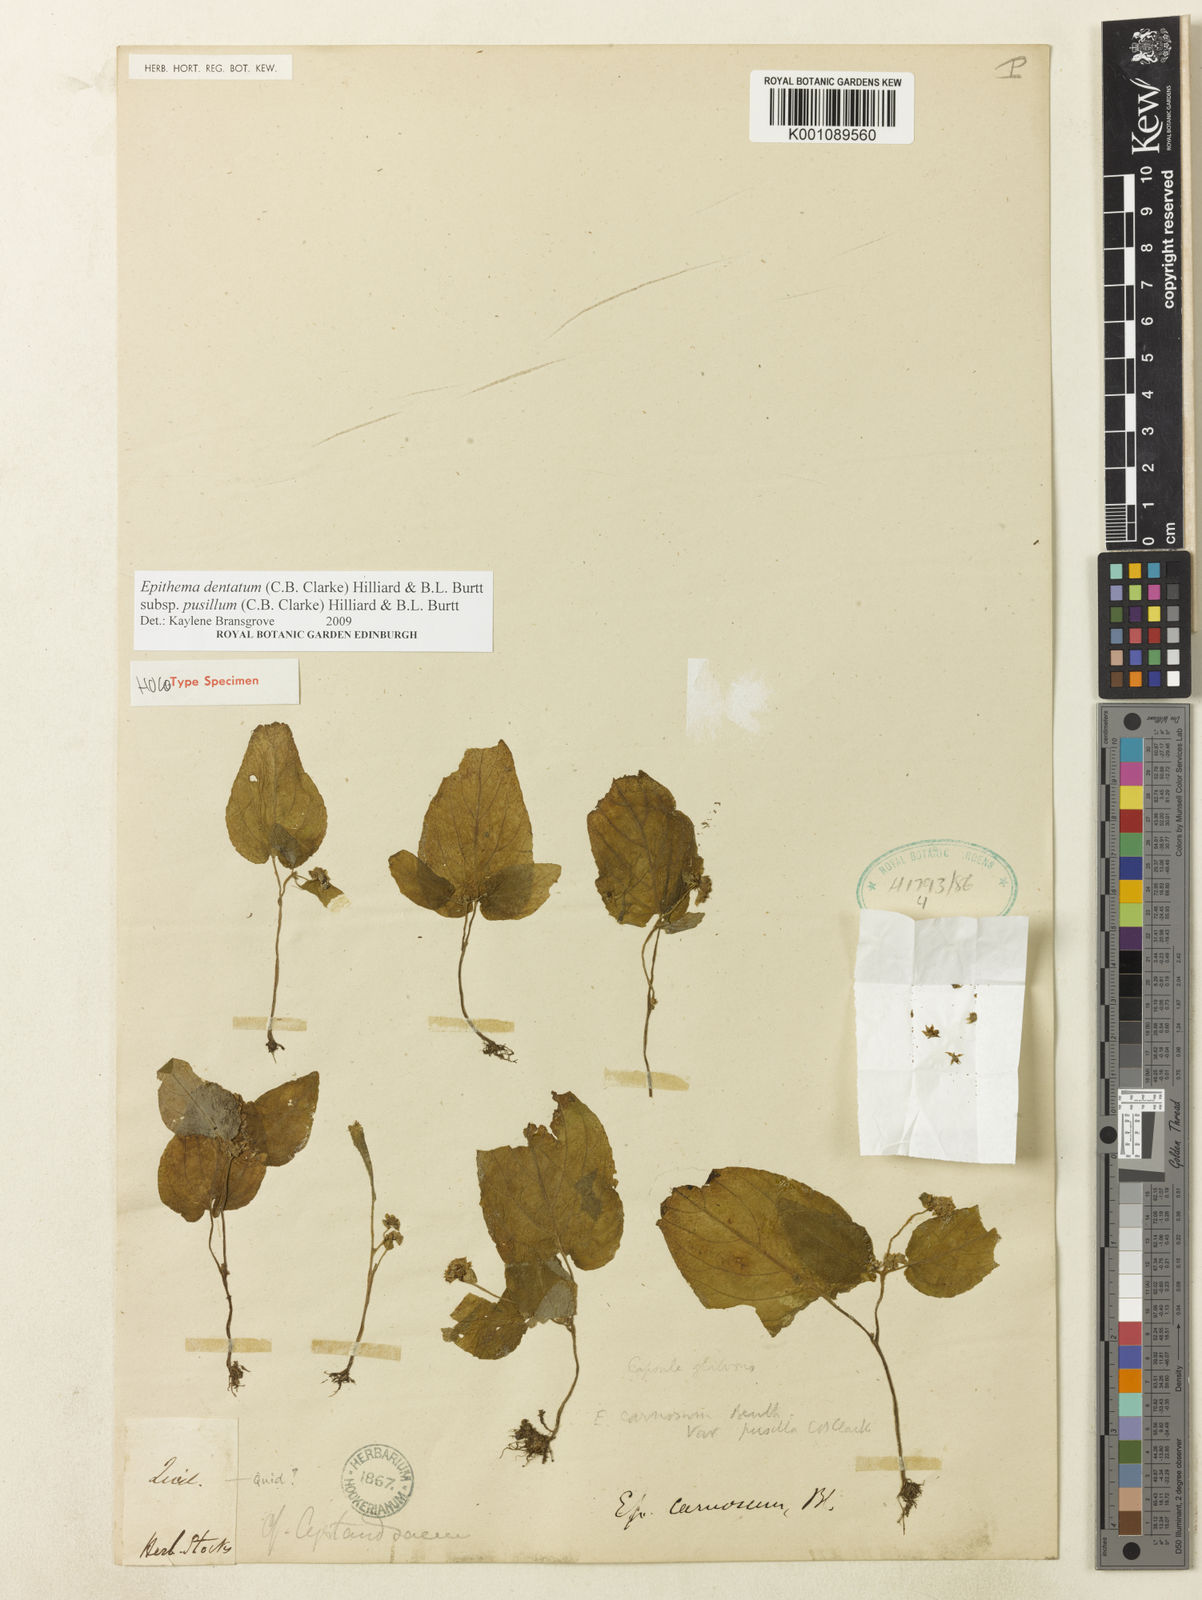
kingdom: Plantae
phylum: Tracheophyta
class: Magnoliopsida
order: Lamiales
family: Gesneriaceae
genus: Epithema
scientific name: Epithema pusillum
